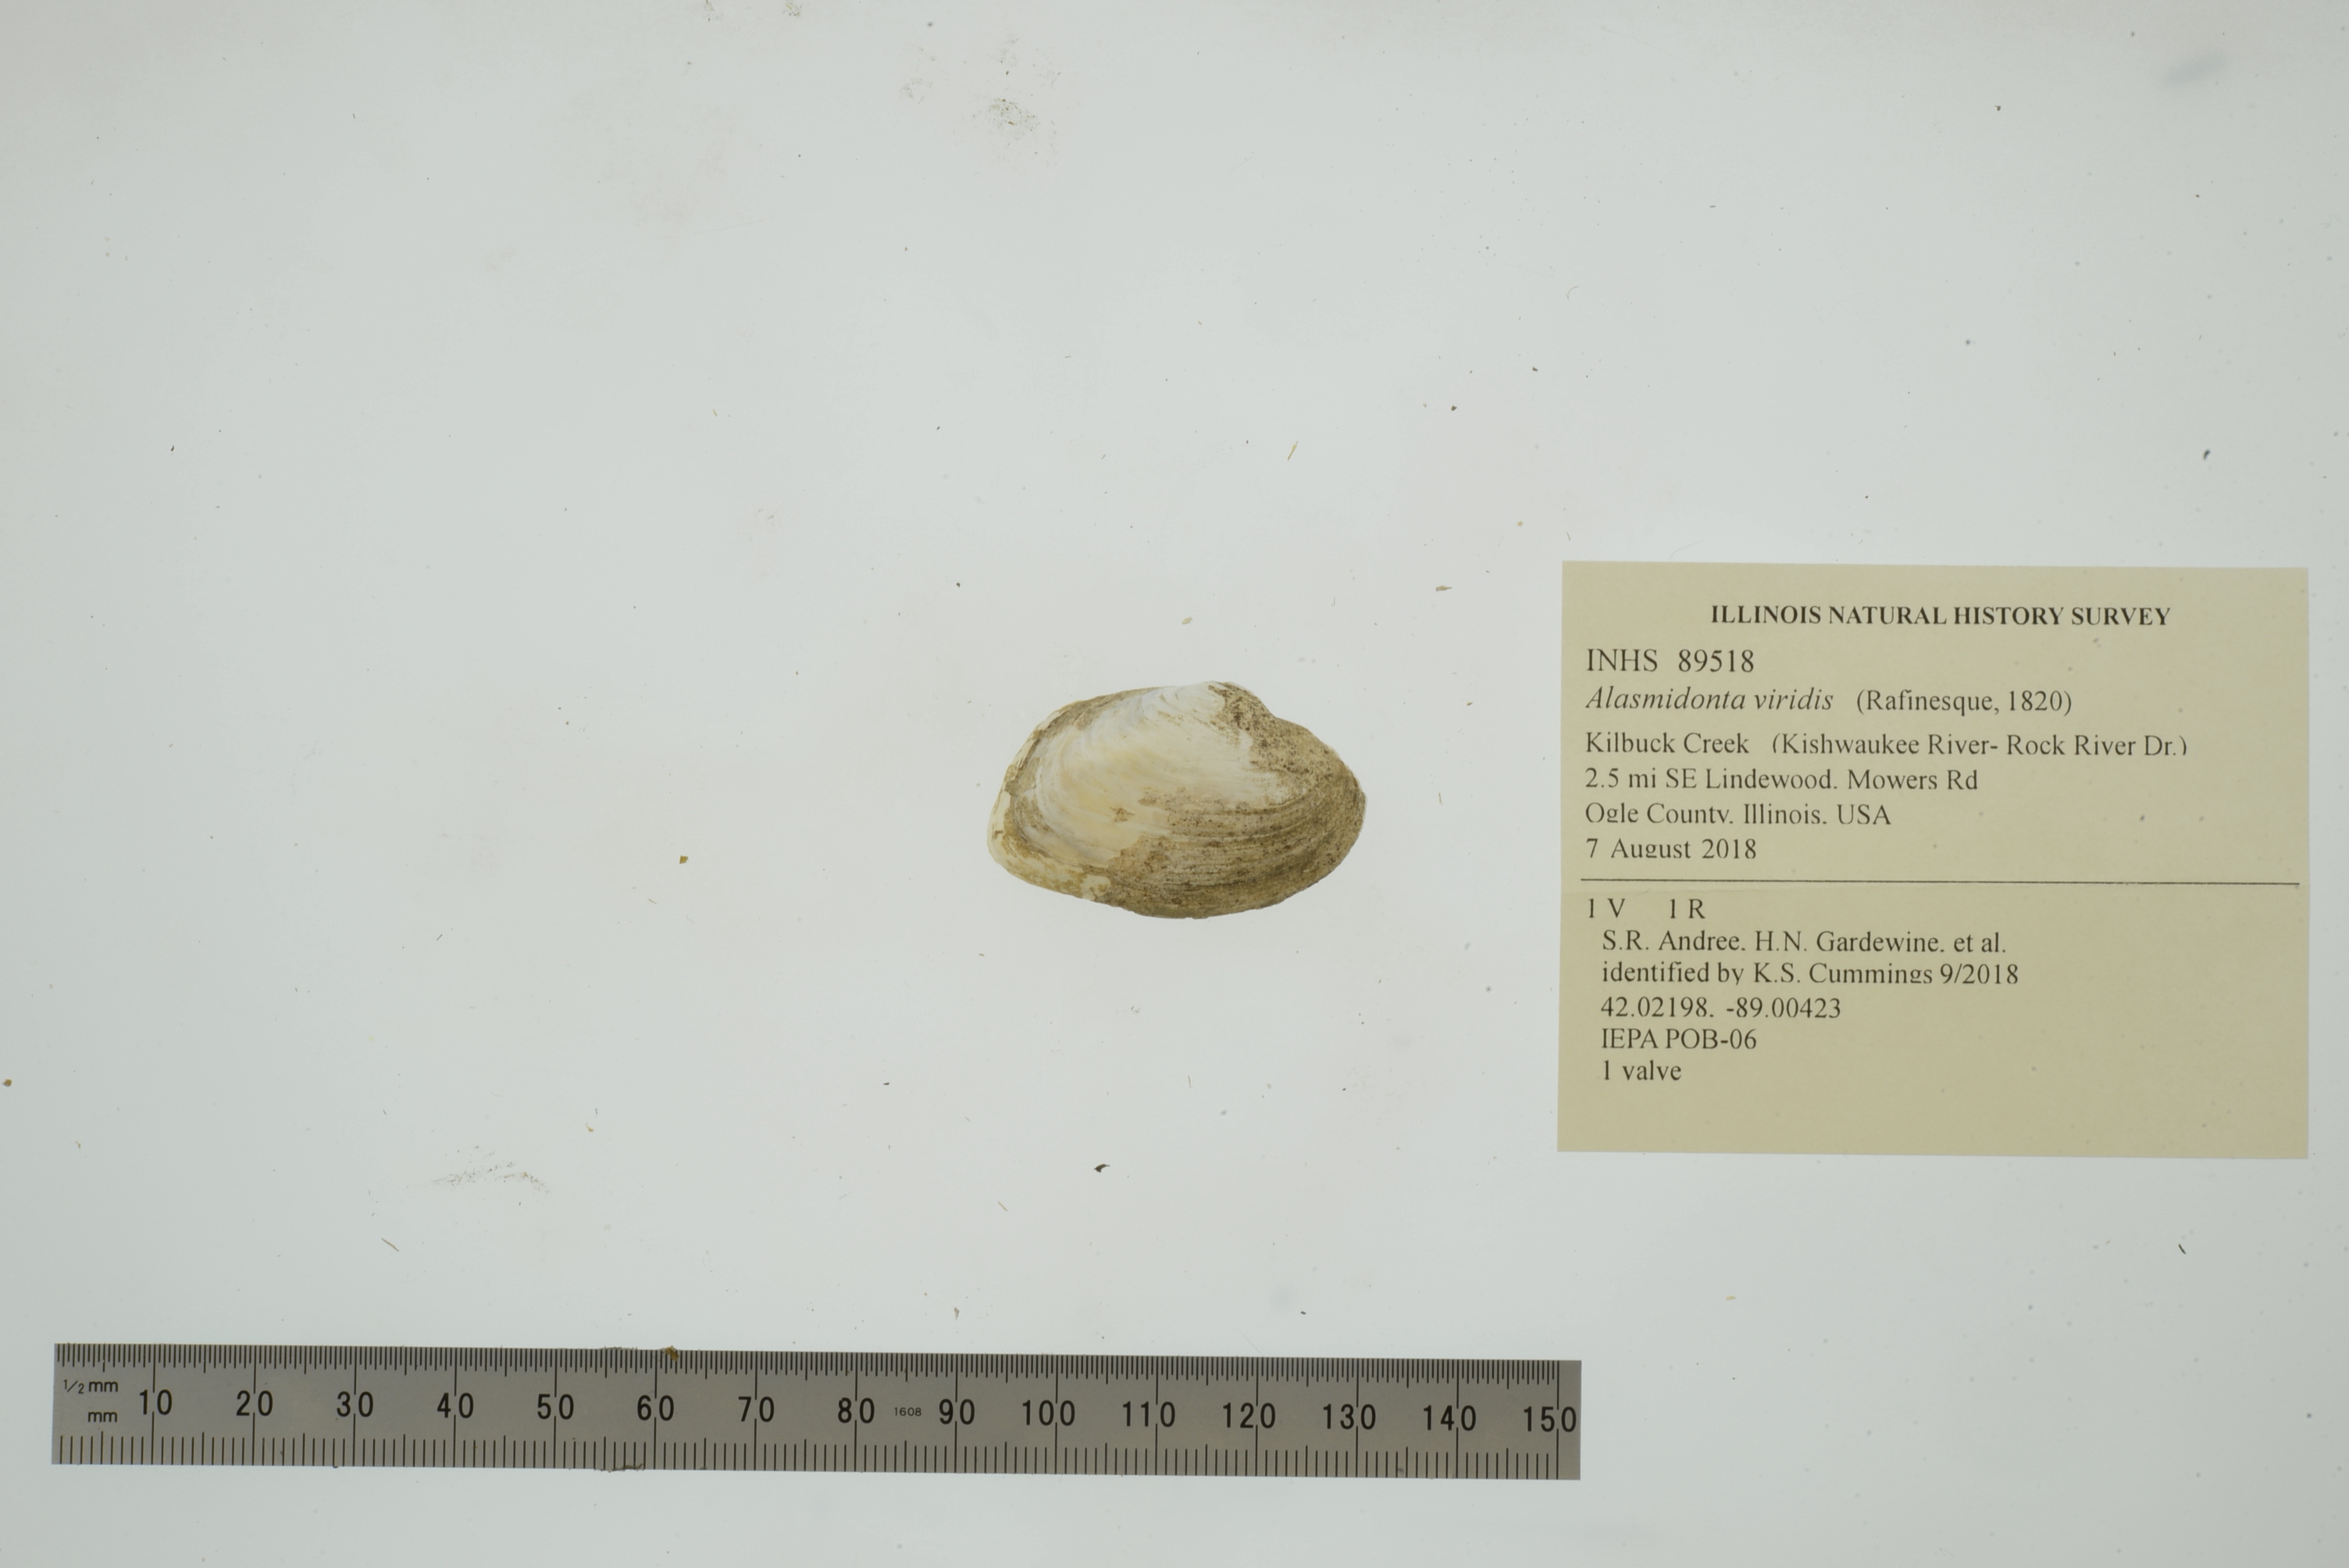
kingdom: Animalia
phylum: Mollusca
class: Bivalvia
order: Unionida
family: Unionidae
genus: Alasmidonta
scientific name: Alasmidonta viridis
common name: Slippershell mussel
